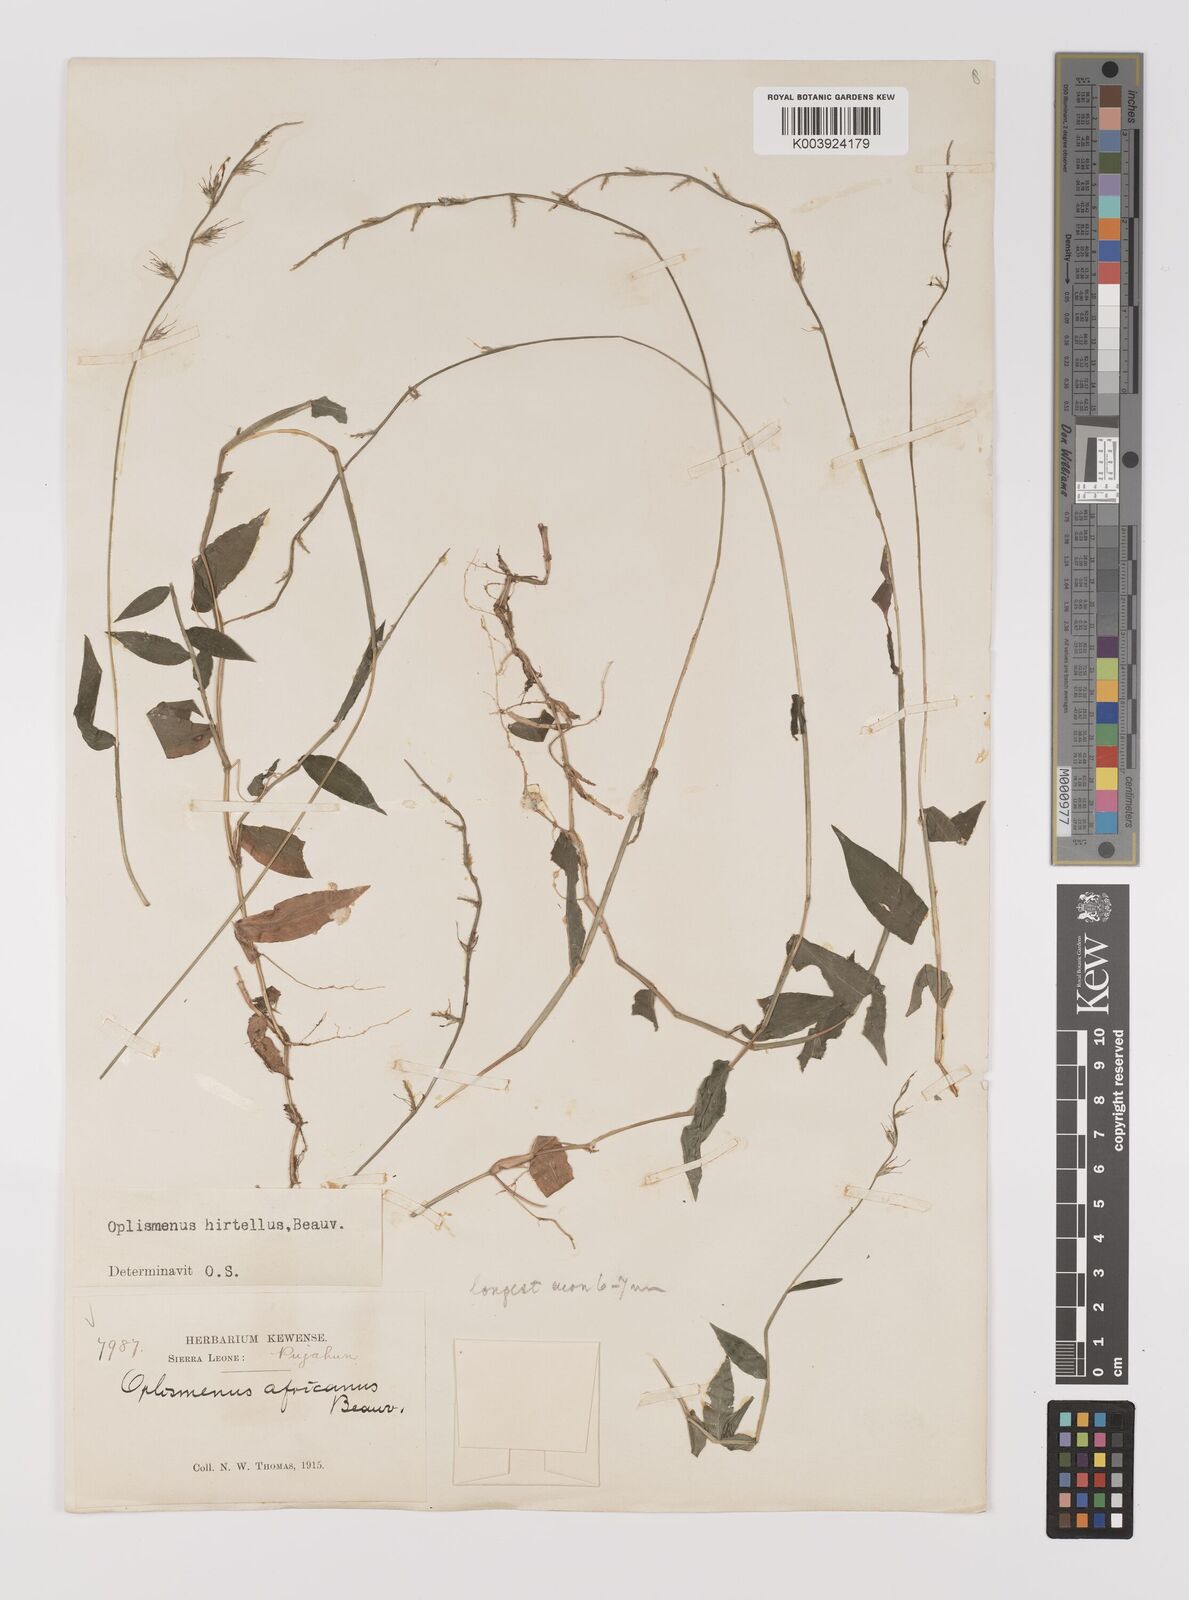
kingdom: Plantae
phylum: Tracheophyta
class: Liliopsida
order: Poales
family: Poaceae
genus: Oplismenus
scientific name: Oplismenus hirtellus
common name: Basketgrass
